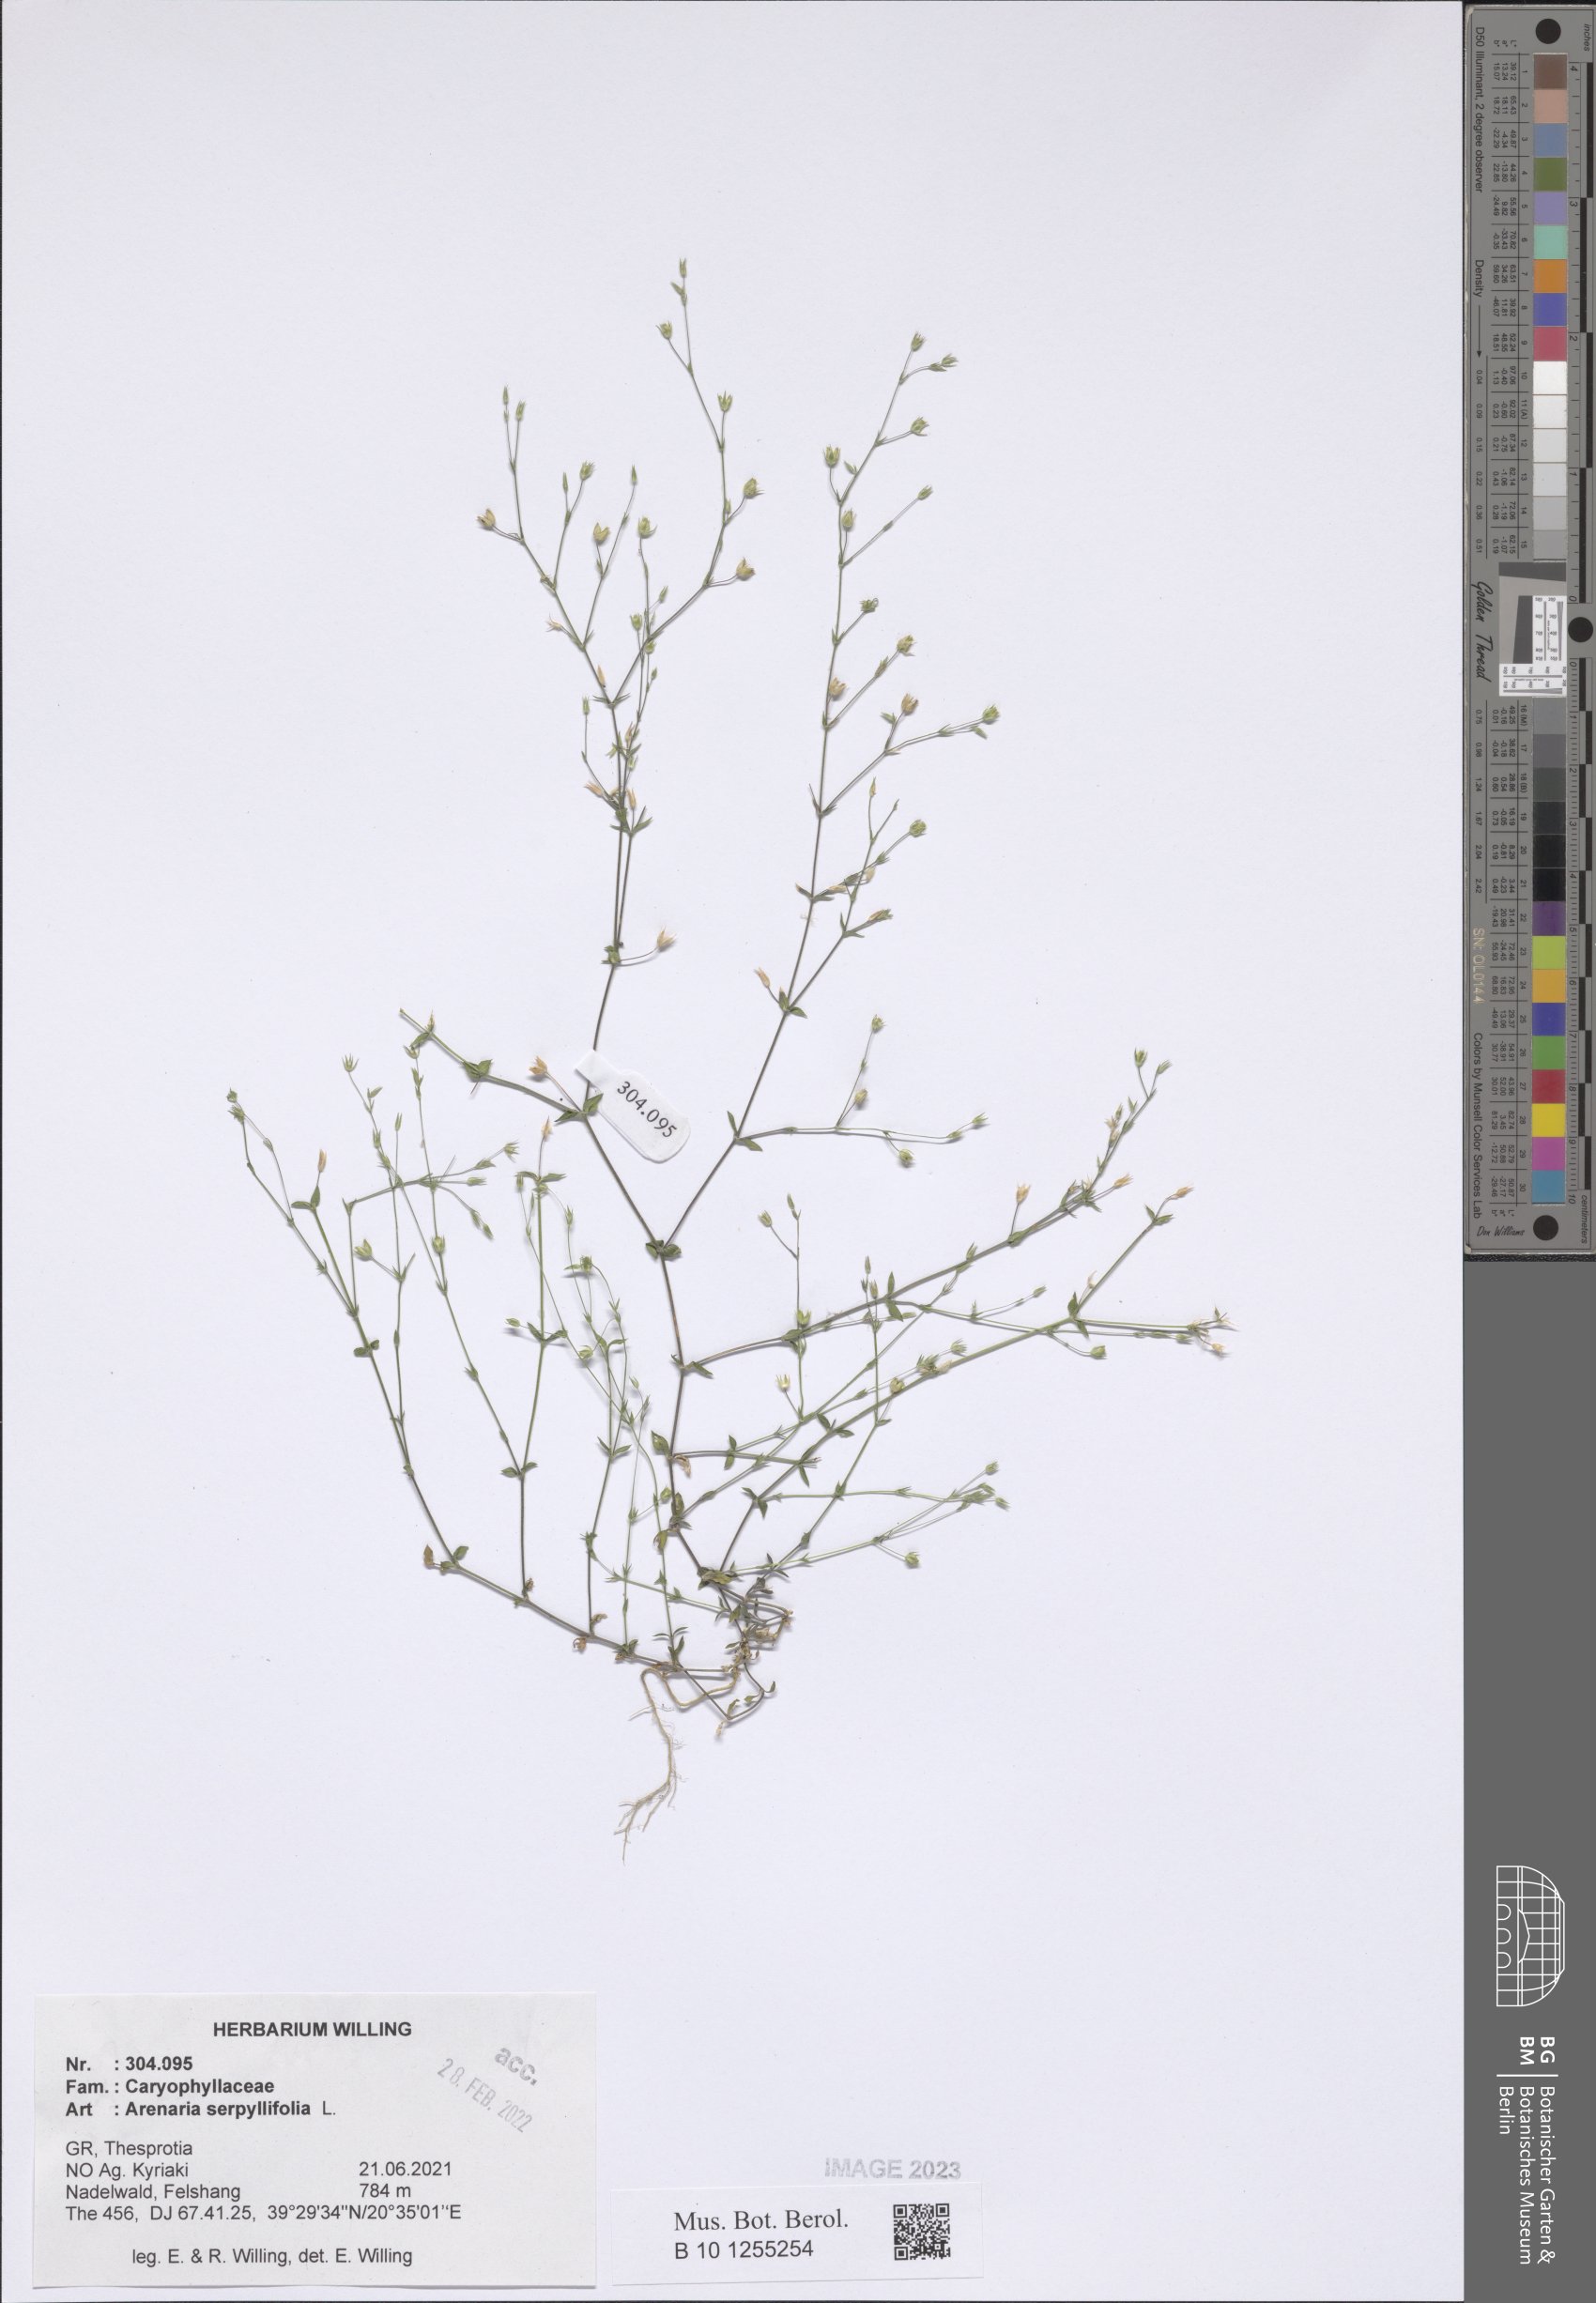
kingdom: Plantae
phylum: Tracheophyta
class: Magnoliopsida
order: Caryophyllales
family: Caryophyllaceae
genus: Arenaria
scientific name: Arenaria serpyllifolia
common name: Thyme-leaved sandwort
